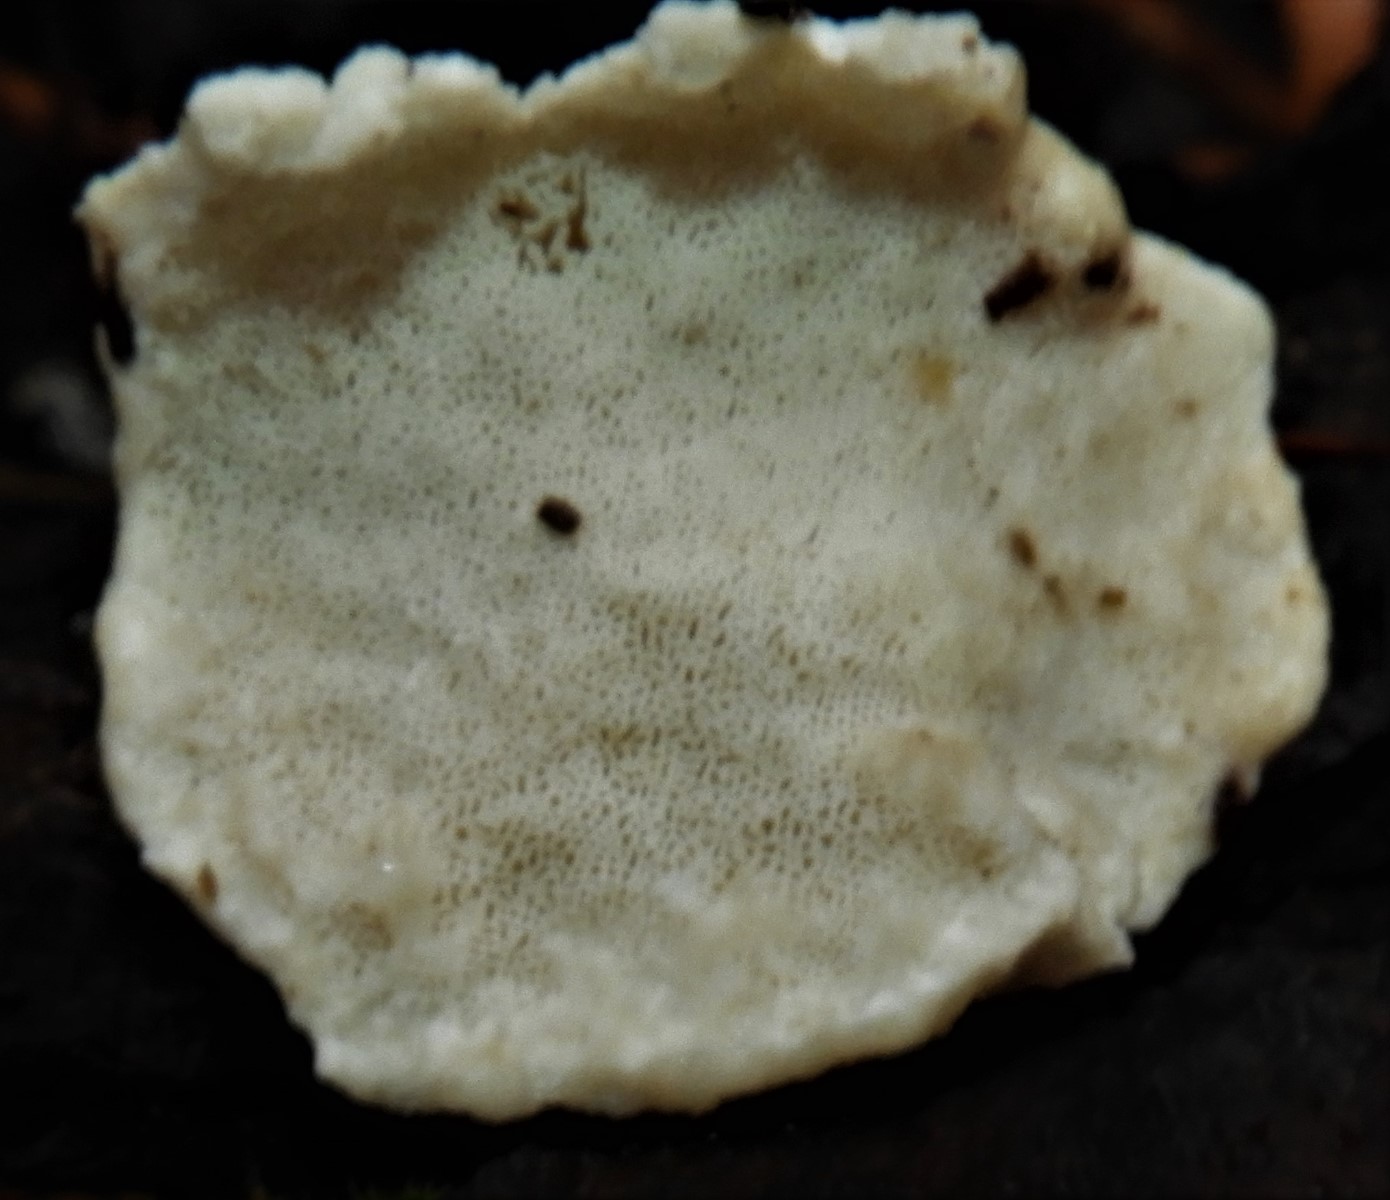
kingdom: Fungi
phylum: Basidiomycota
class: Agaricomycetes
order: Polyporales
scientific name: Polyporales
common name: poresvampordenen
